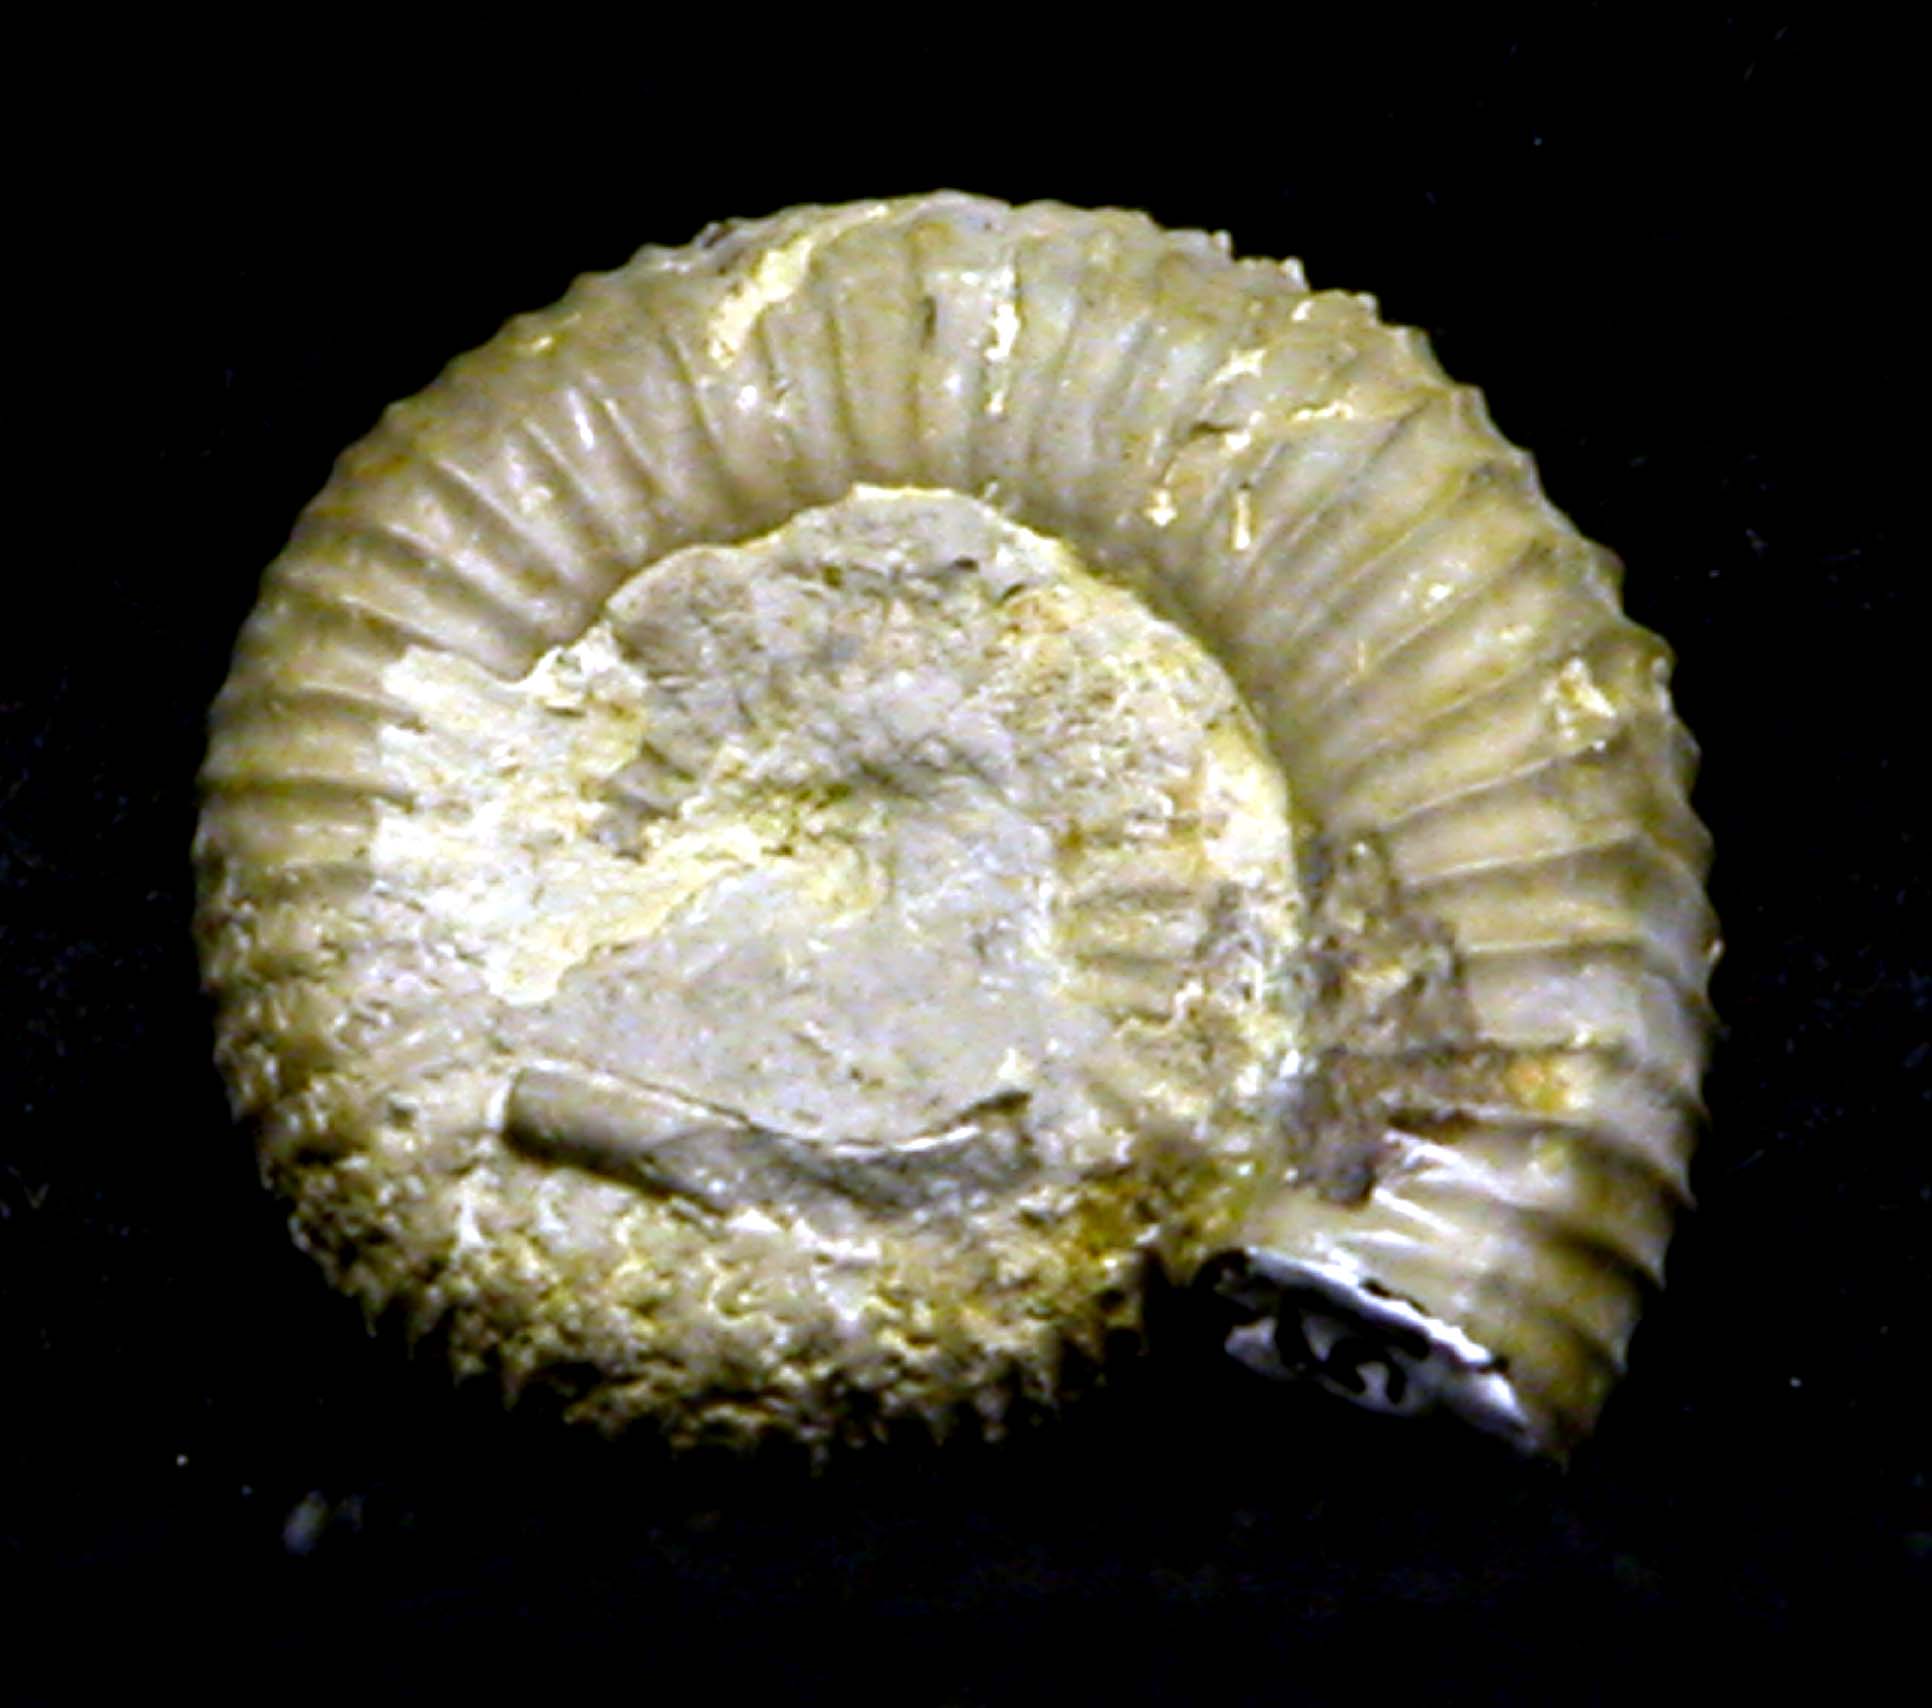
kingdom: Animalia
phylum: Mollusca
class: Cephalopoda
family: Dactylioceratidae
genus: Catacoeloceras
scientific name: Catacoeloceras
